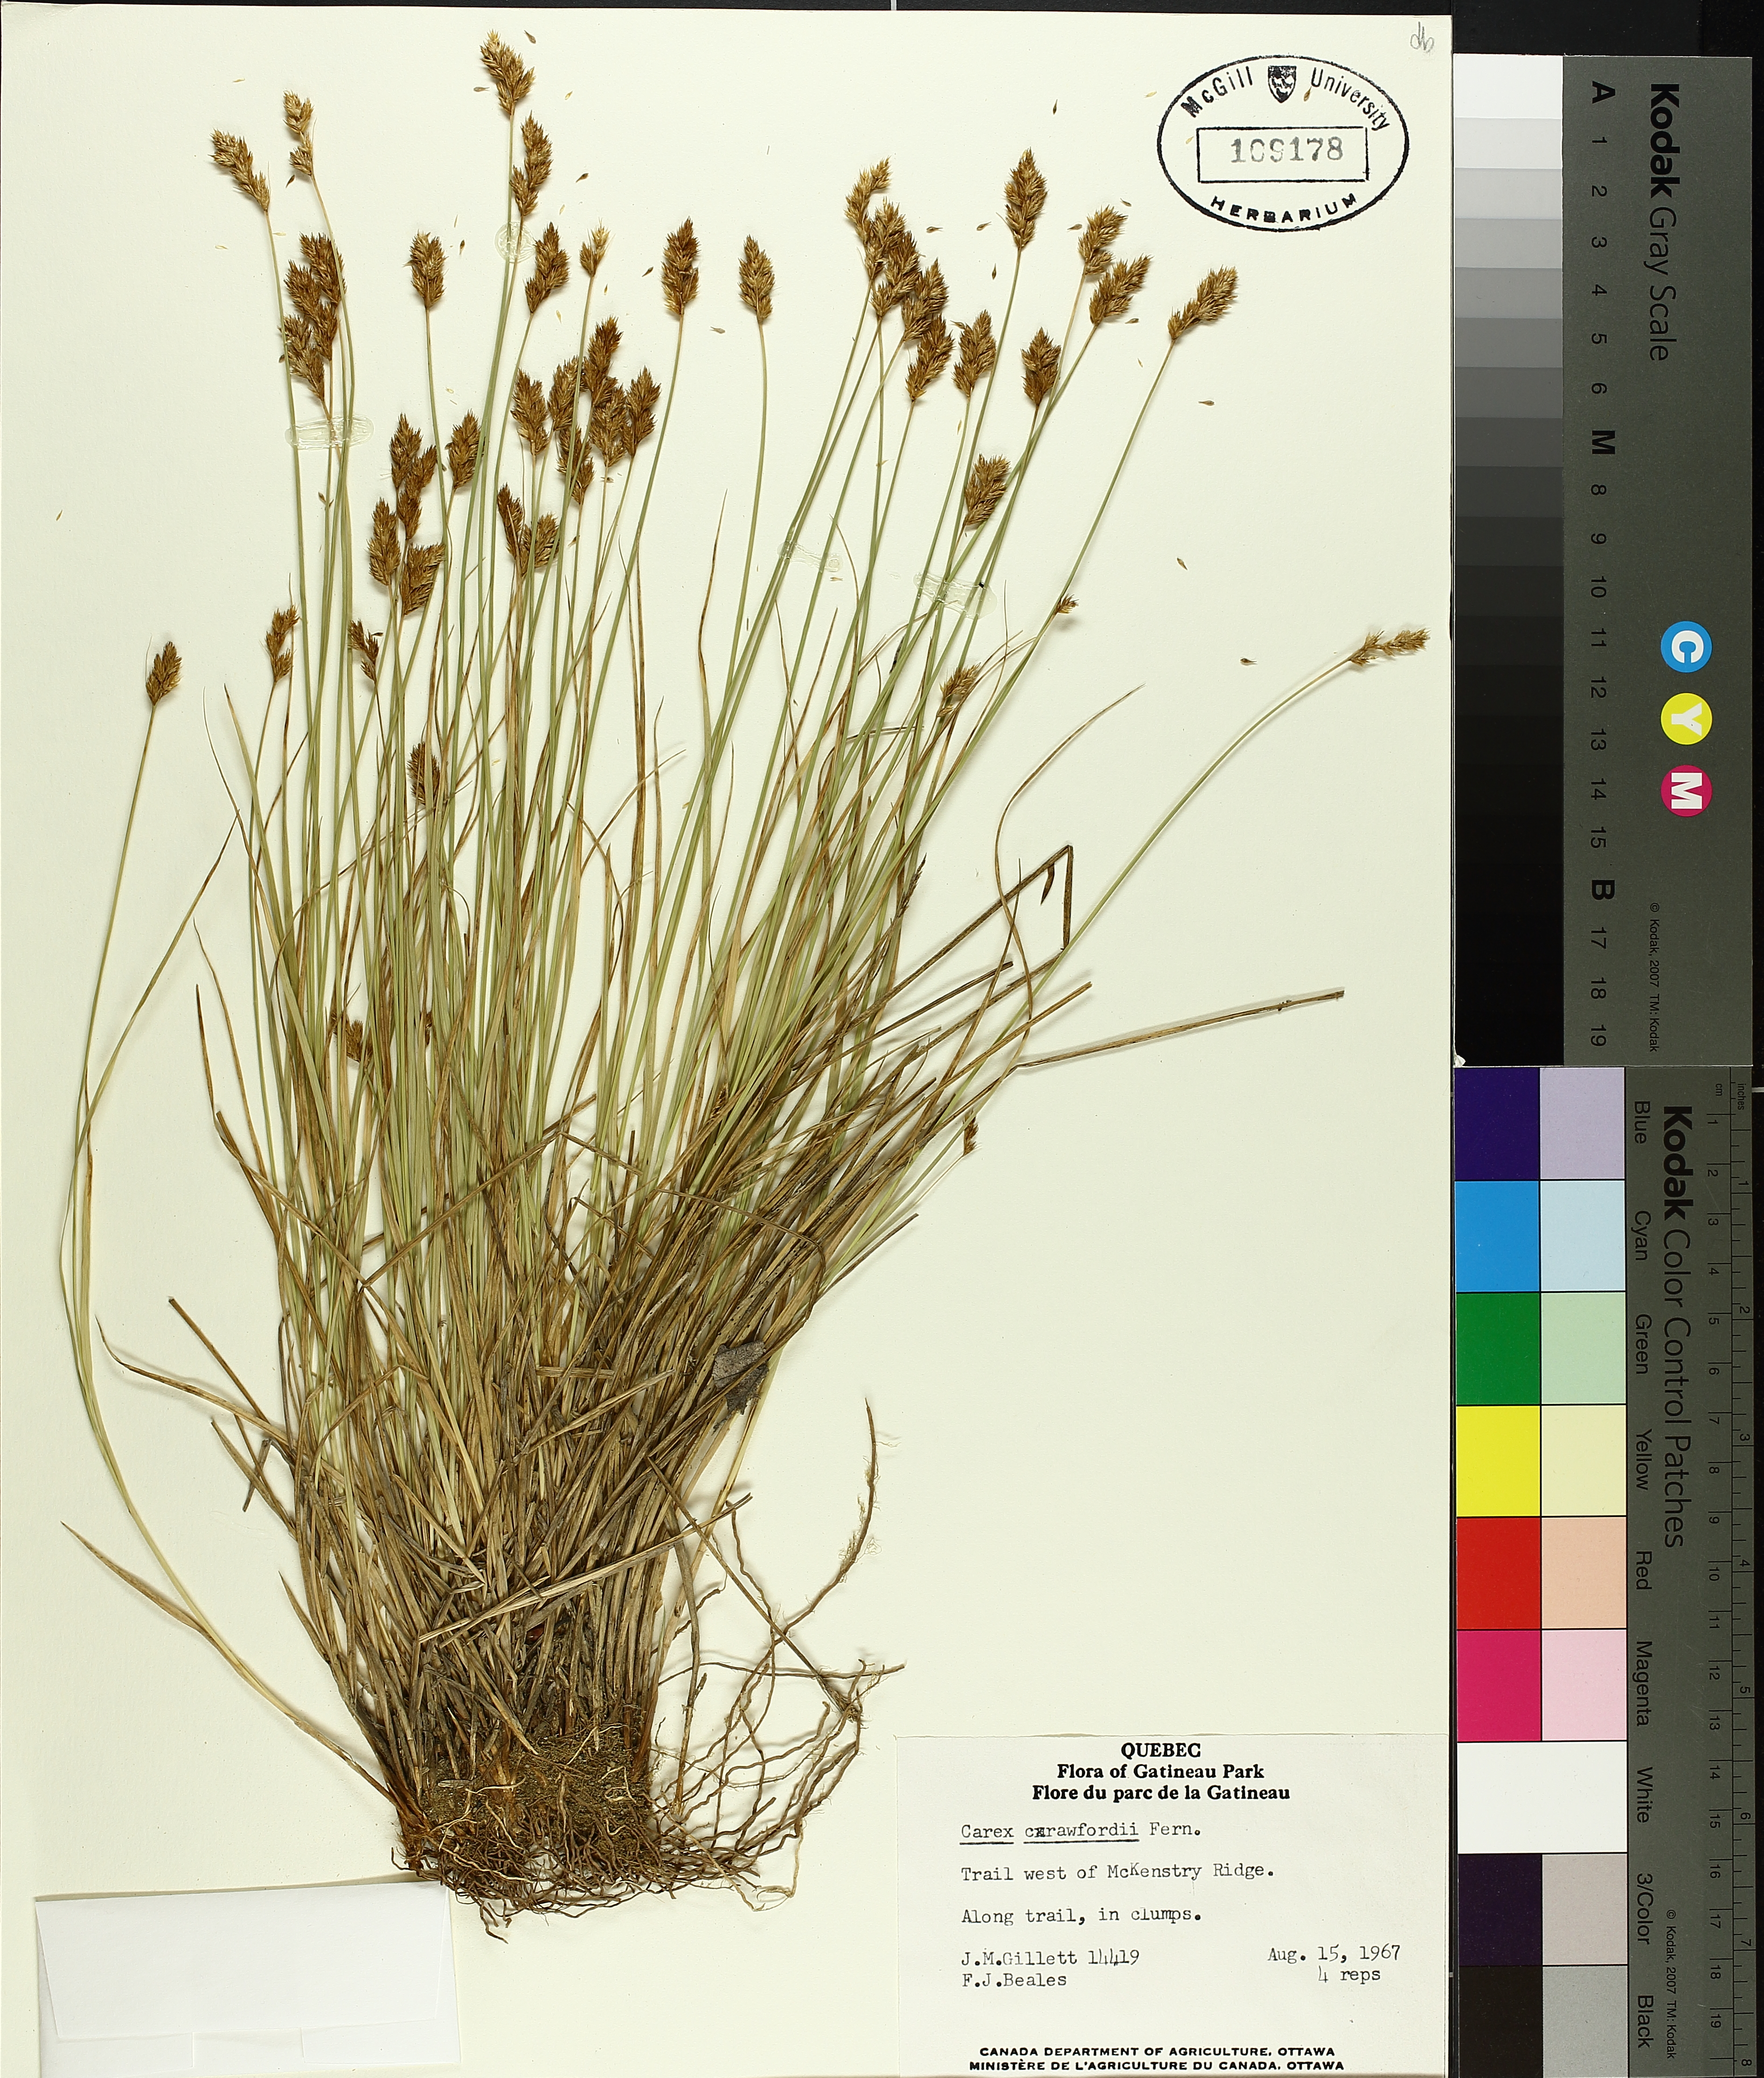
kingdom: Plantae
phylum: Tracheophyta
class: Liliopsida
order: Poales
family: Cyperaceae
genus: Carex
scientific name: Carex crawfordii
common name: Crawford's sedge
